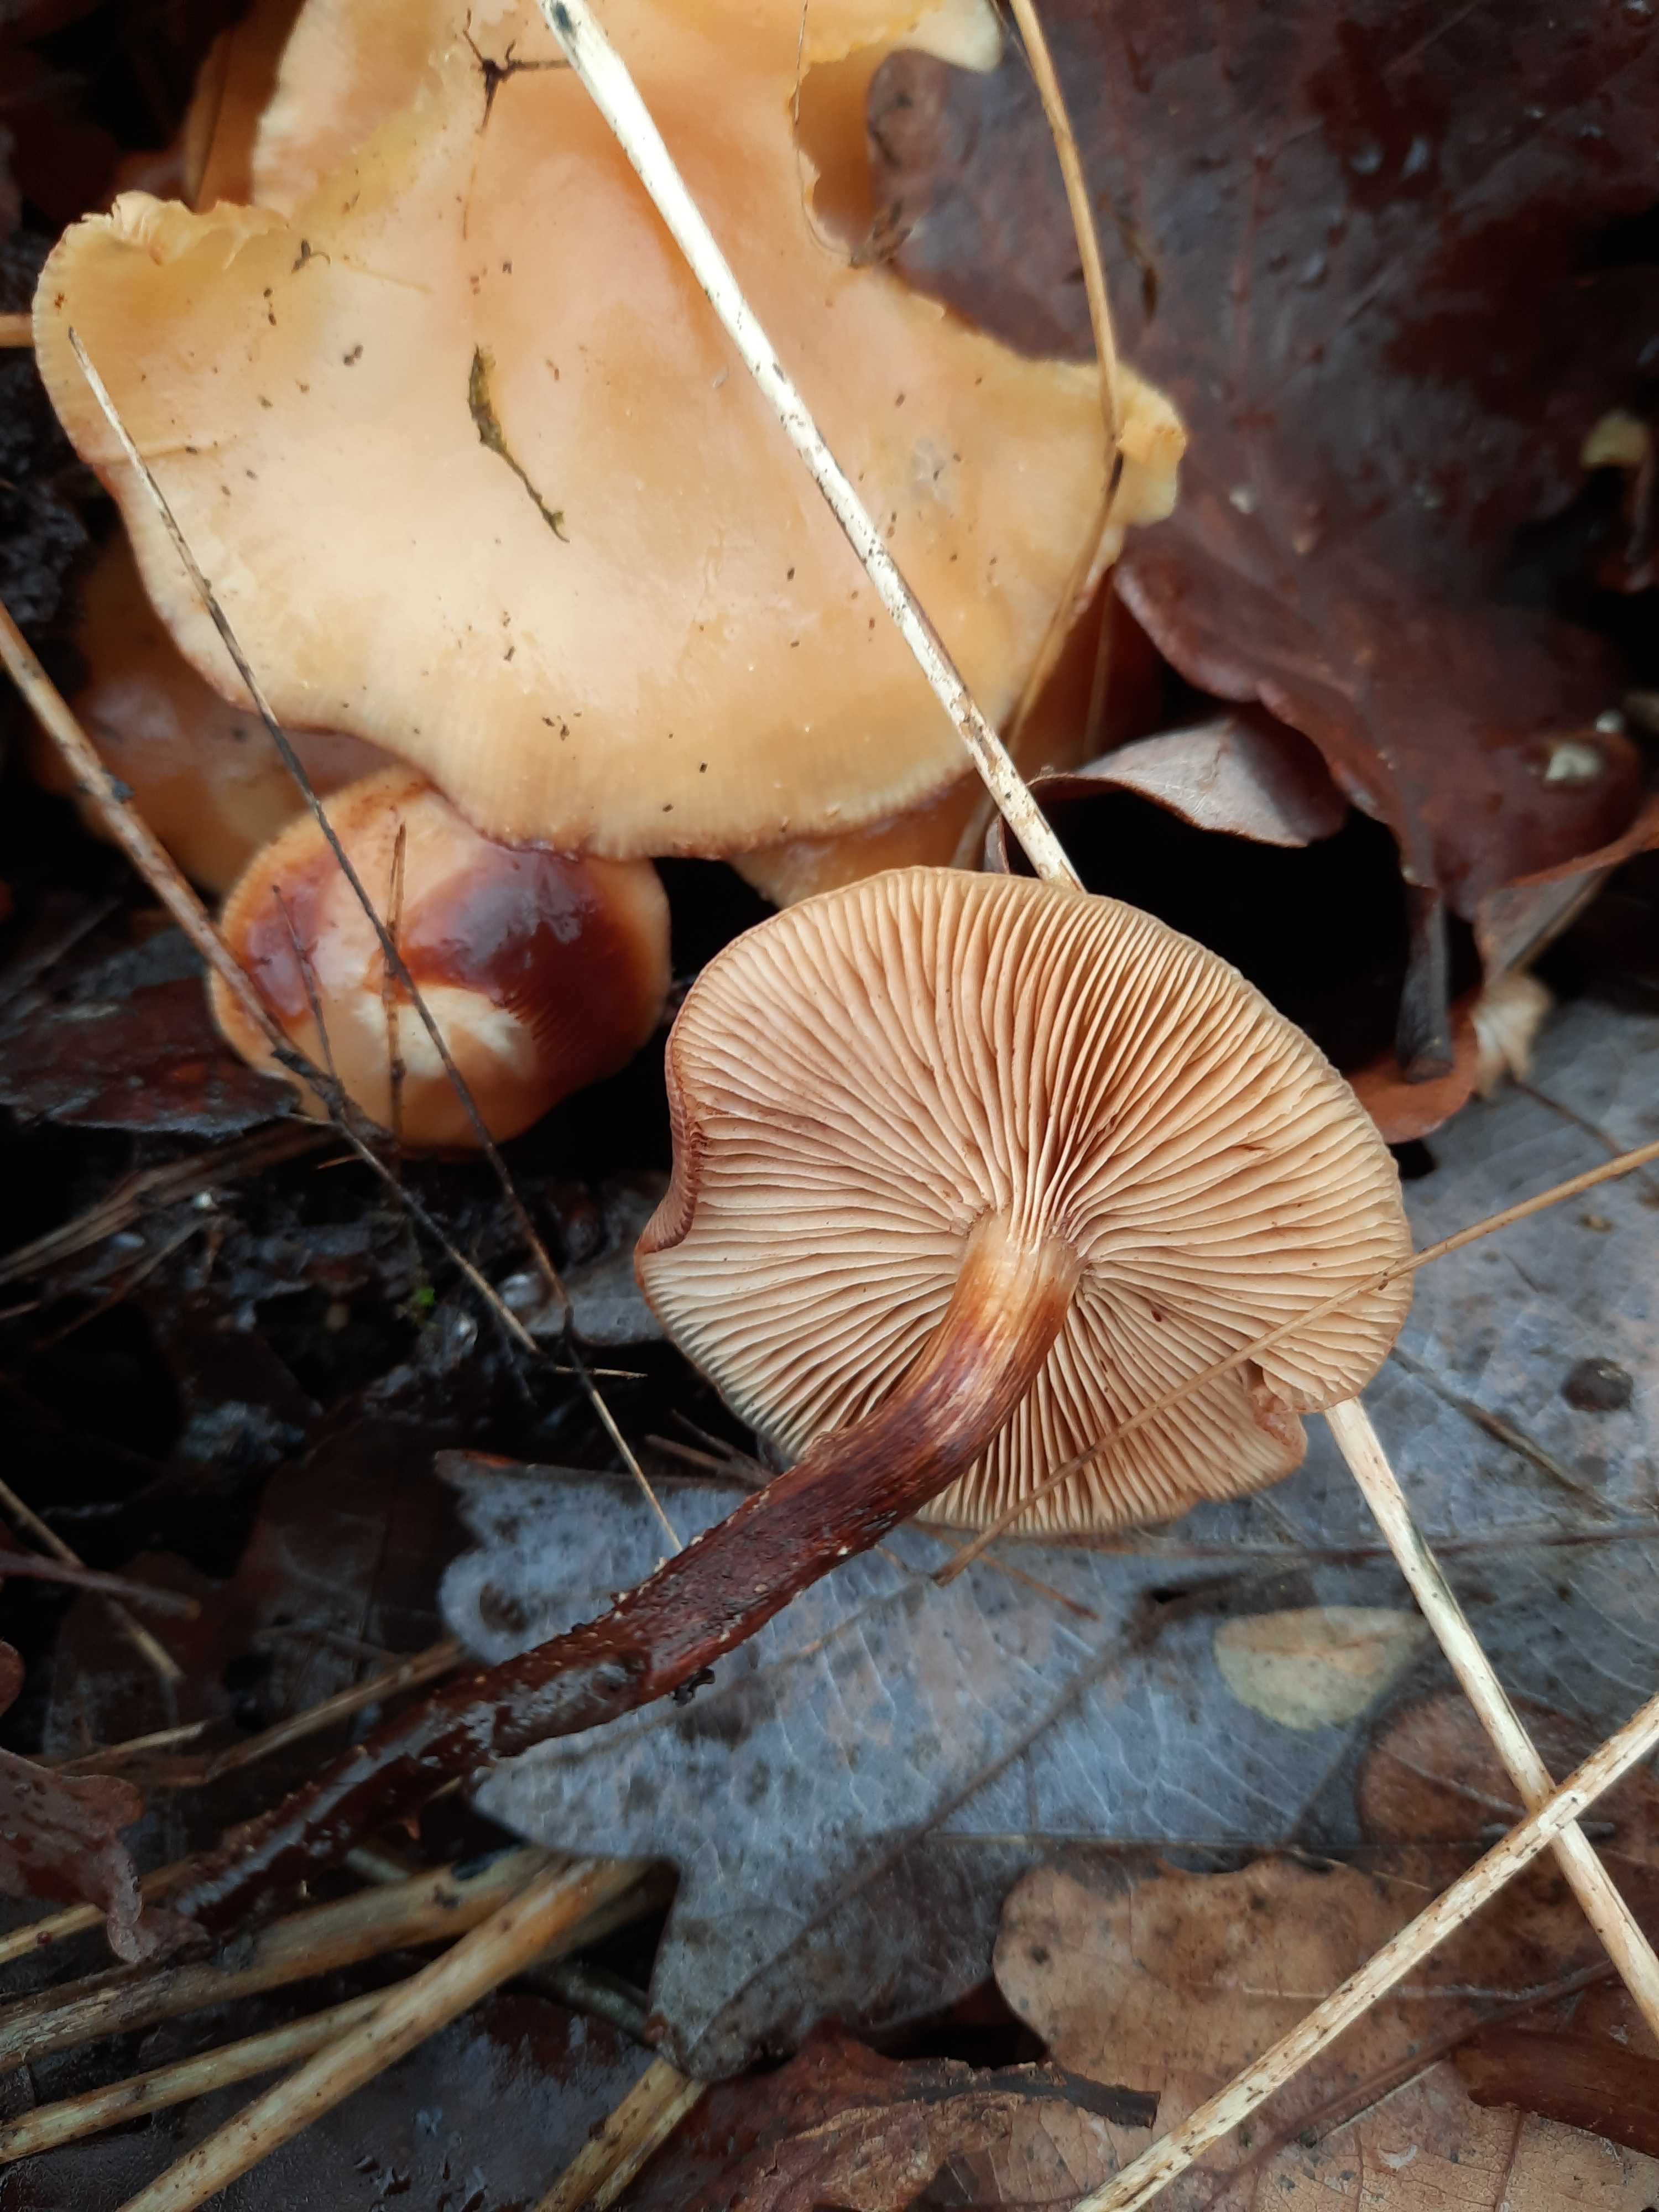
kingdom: Fungi
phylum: Basidiomycota
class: Agaricomycetes
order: Agaricales
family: Strophariaceae
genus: Kuehneromyces
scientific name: Kuehneromyces mutabilis
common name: foranderlig skælhat
